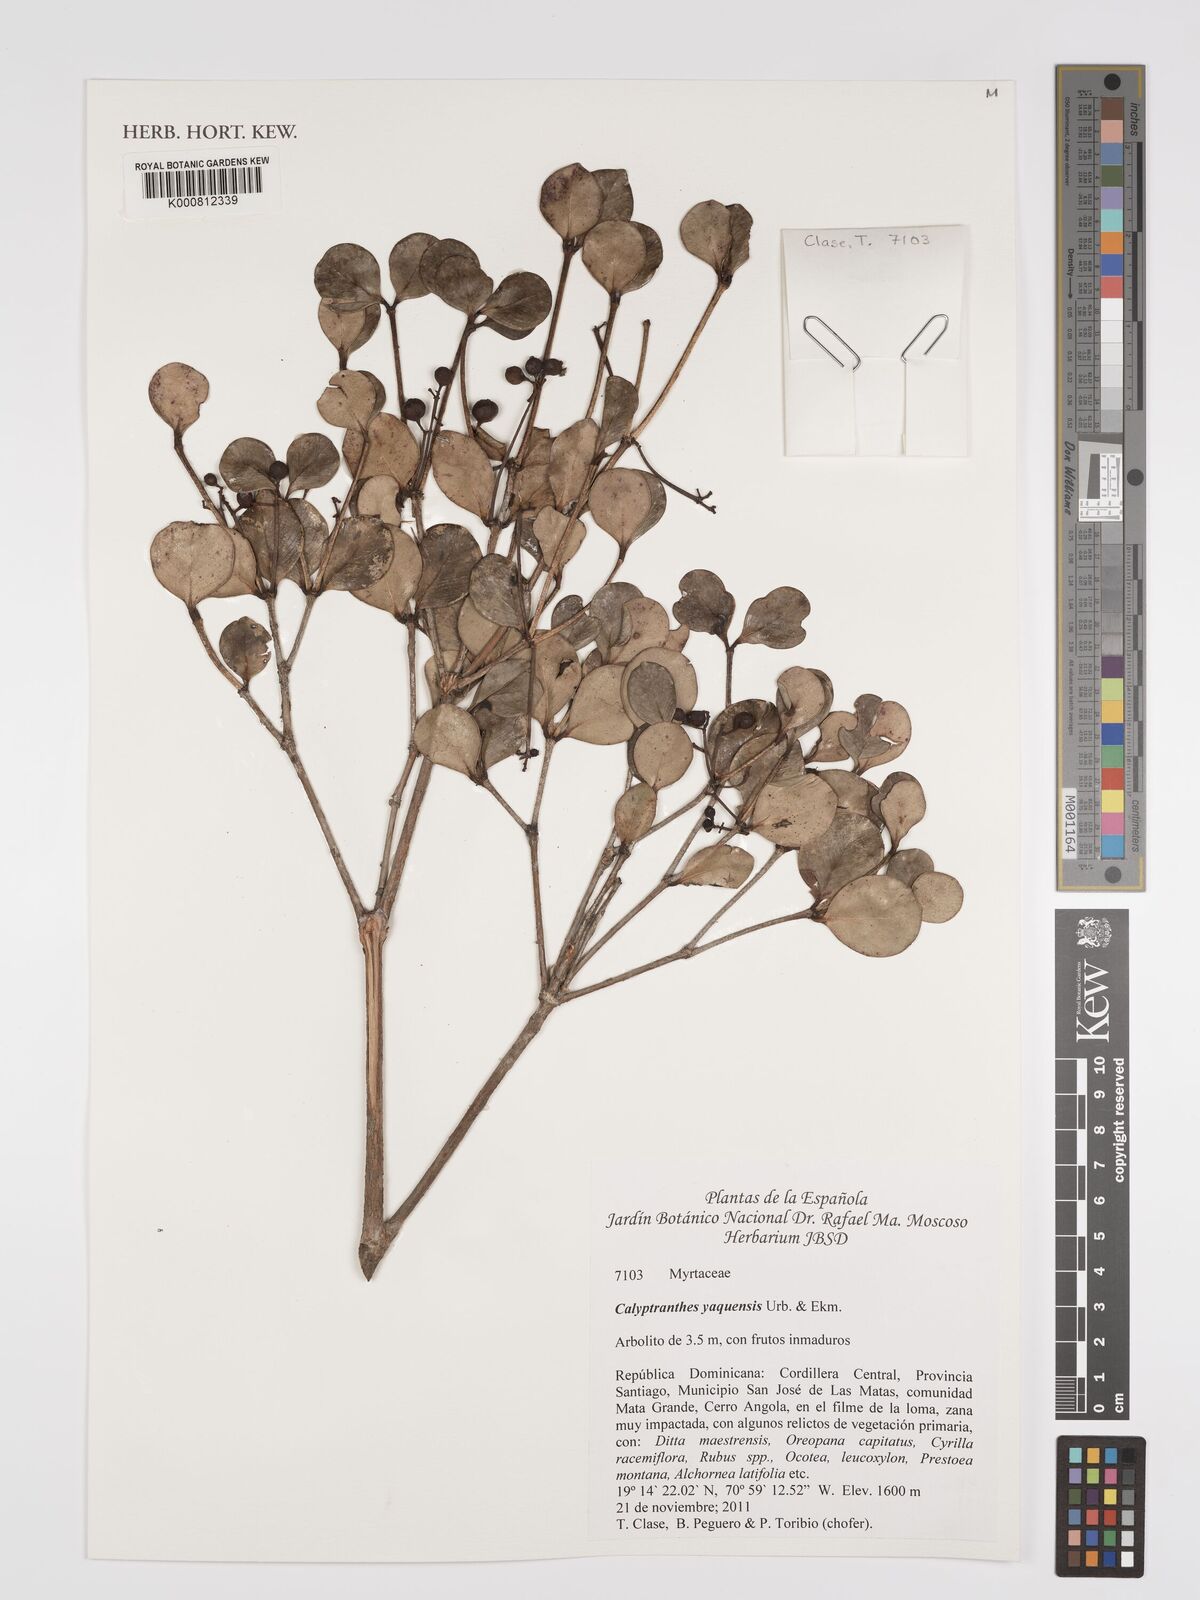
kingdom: Plantae
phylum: Tracheophyta
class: Magnoliopsida
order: Myrtales
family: Myrtaceae
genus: Myrcia
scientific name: Myrcia neoyaquensis
